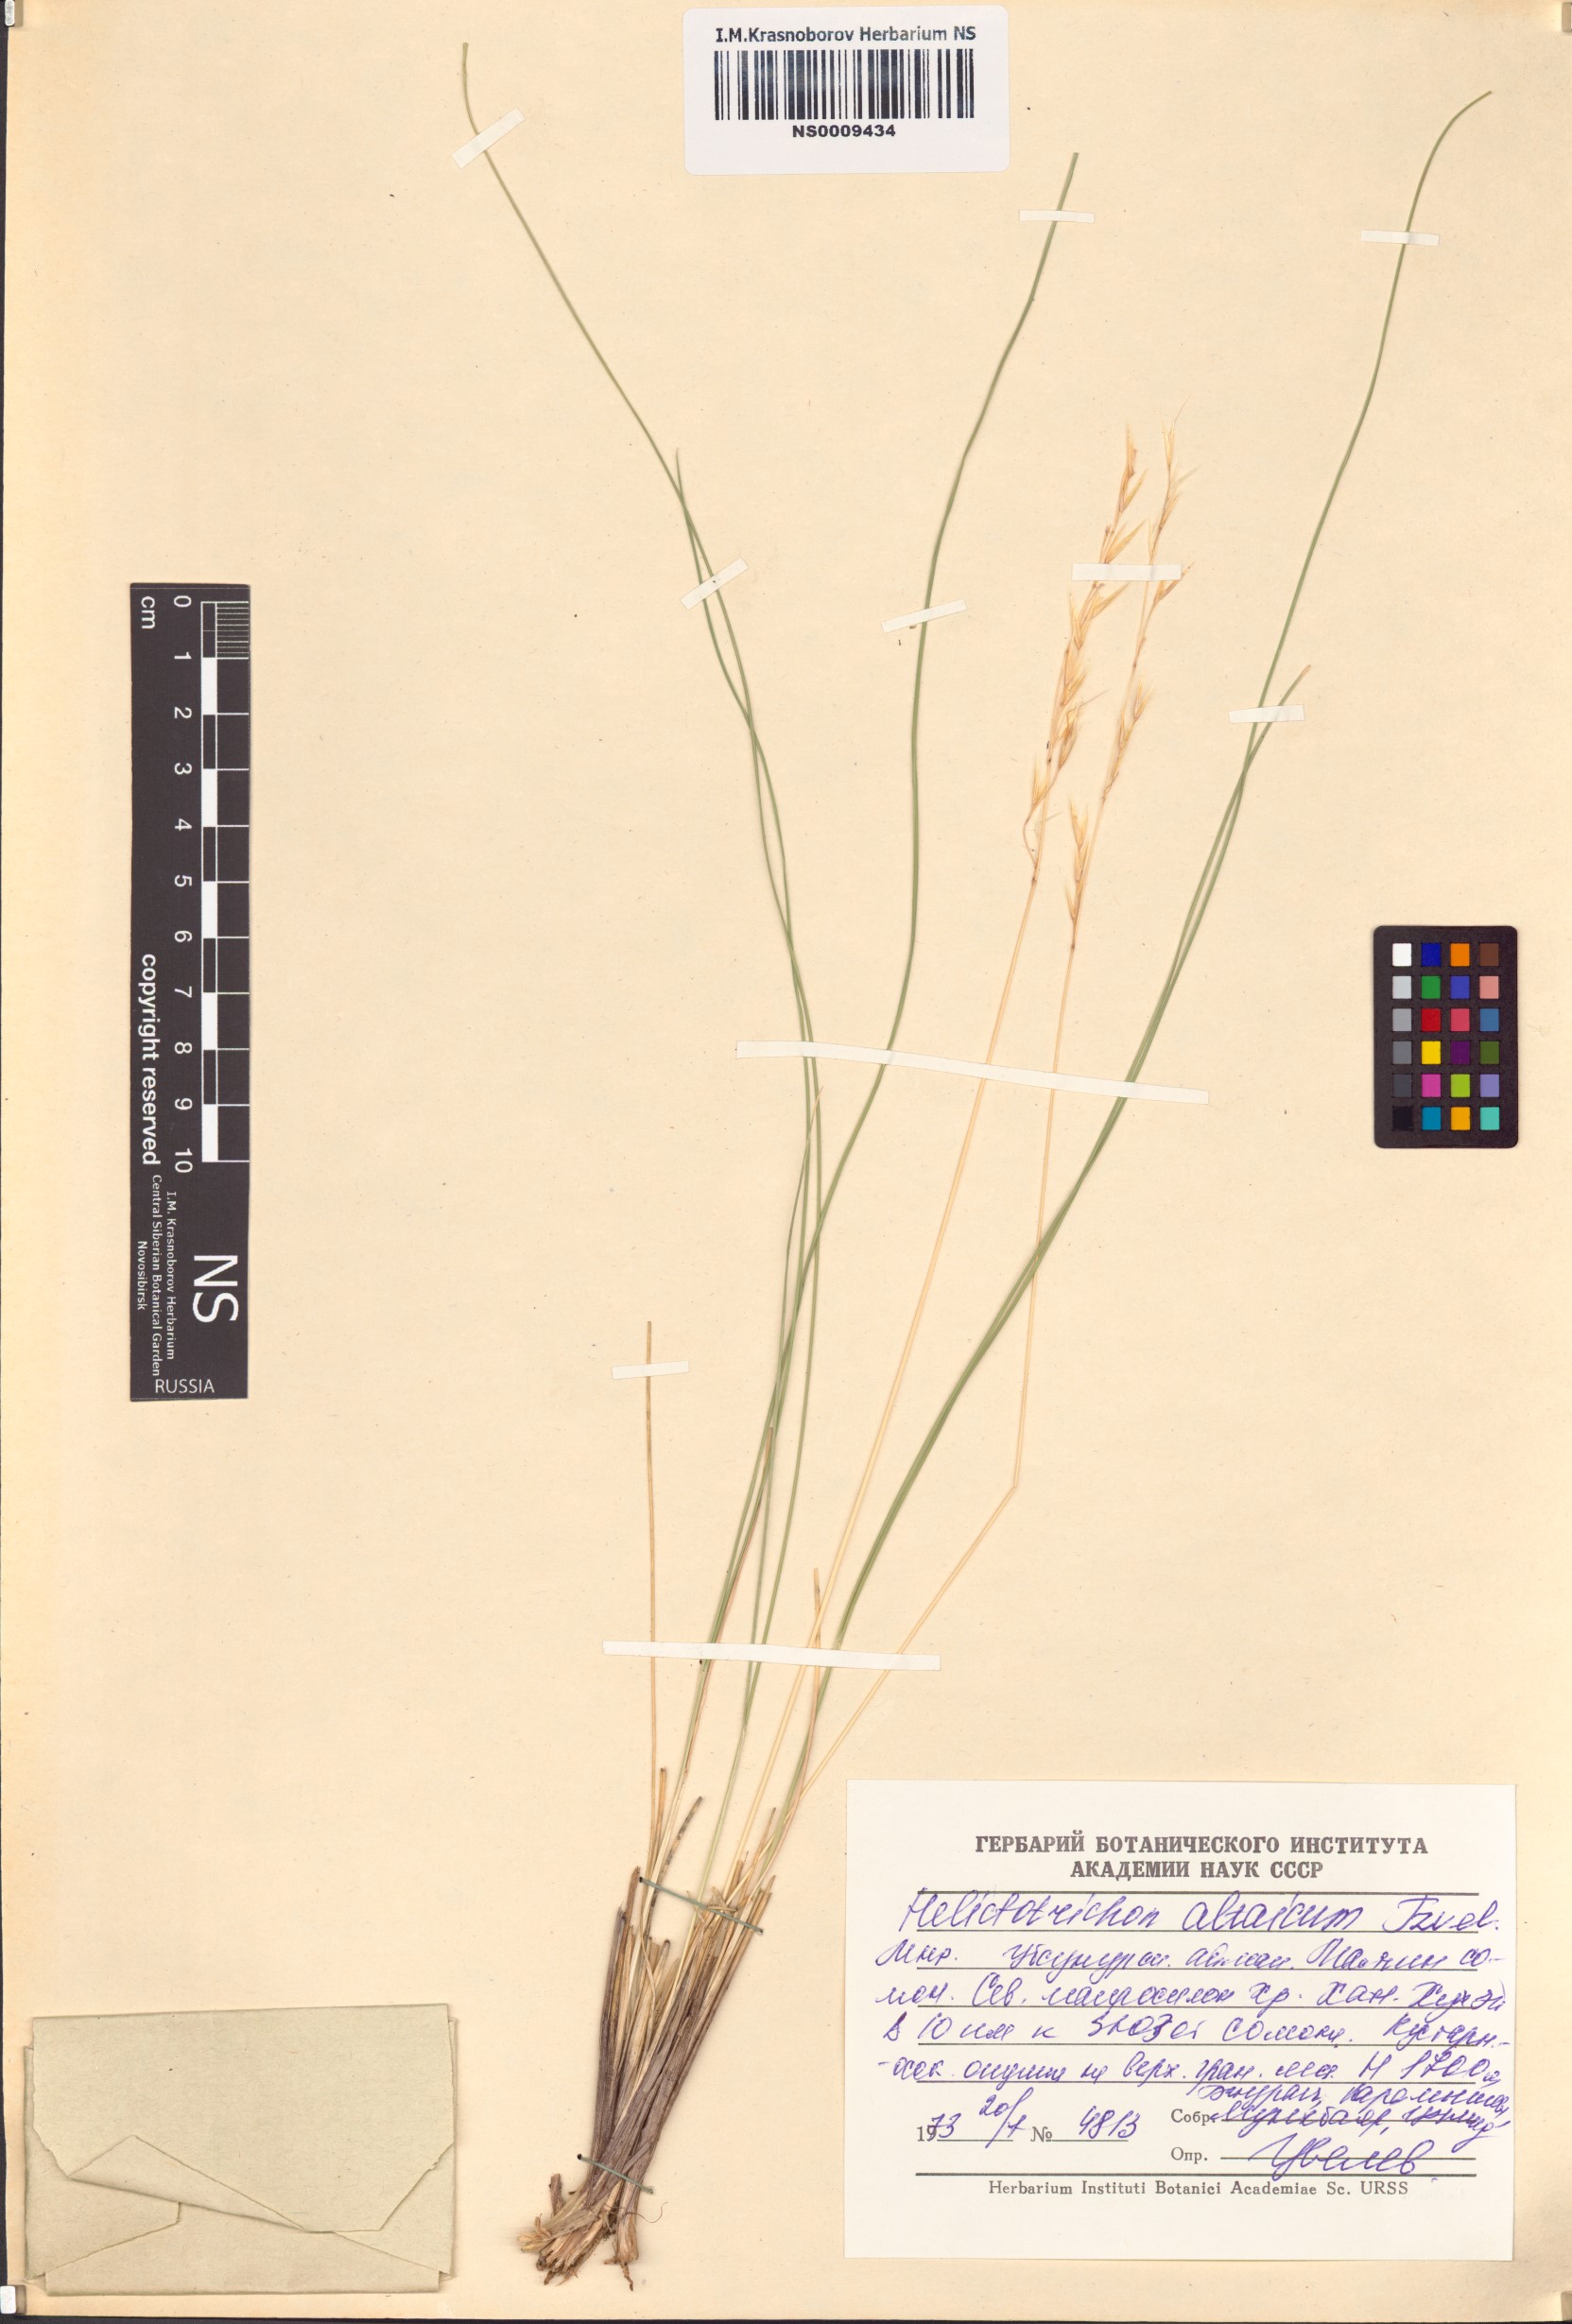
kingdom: Plantae
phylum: Tracheophyta
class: Liliopsida
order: Poales
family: Poaceae
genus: Helictotrichon
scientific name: Helictotrichon desertorum
